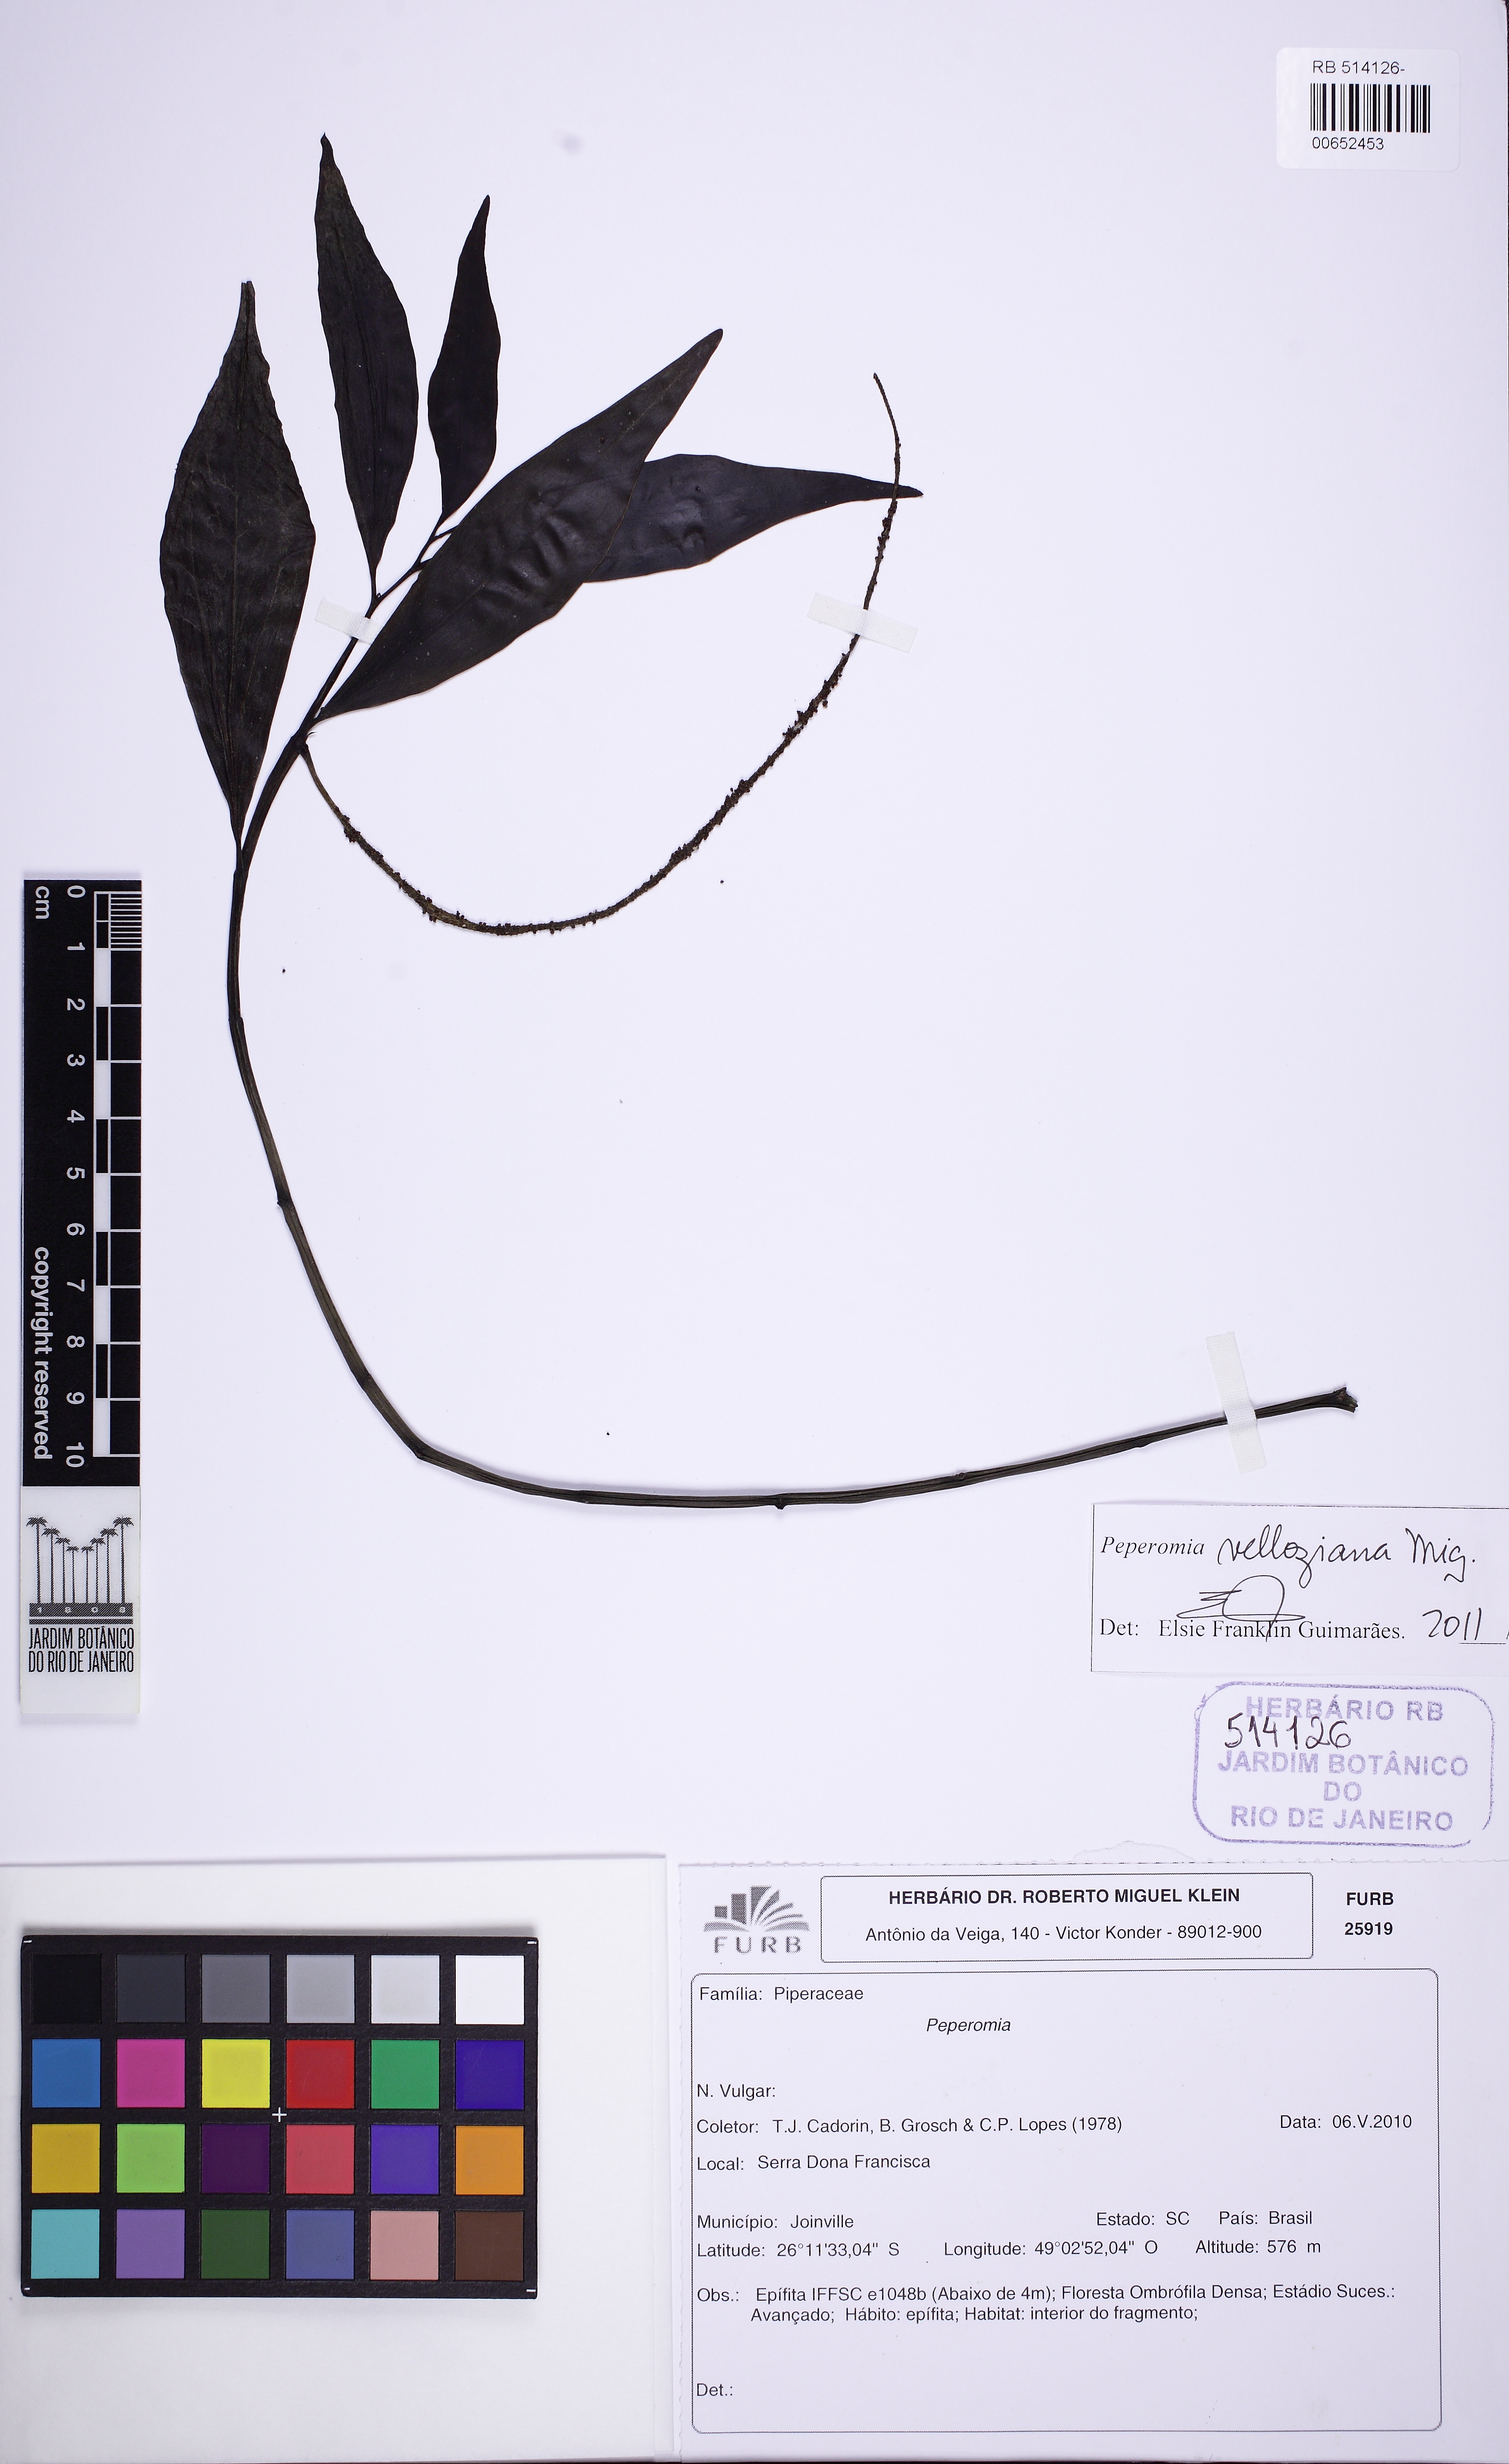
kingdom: Plantae
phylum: Tracheophyta
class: Magnoliopsida
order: Piperales
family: Piperaceae
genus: Peperomia
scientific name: Peperomia velloziana
